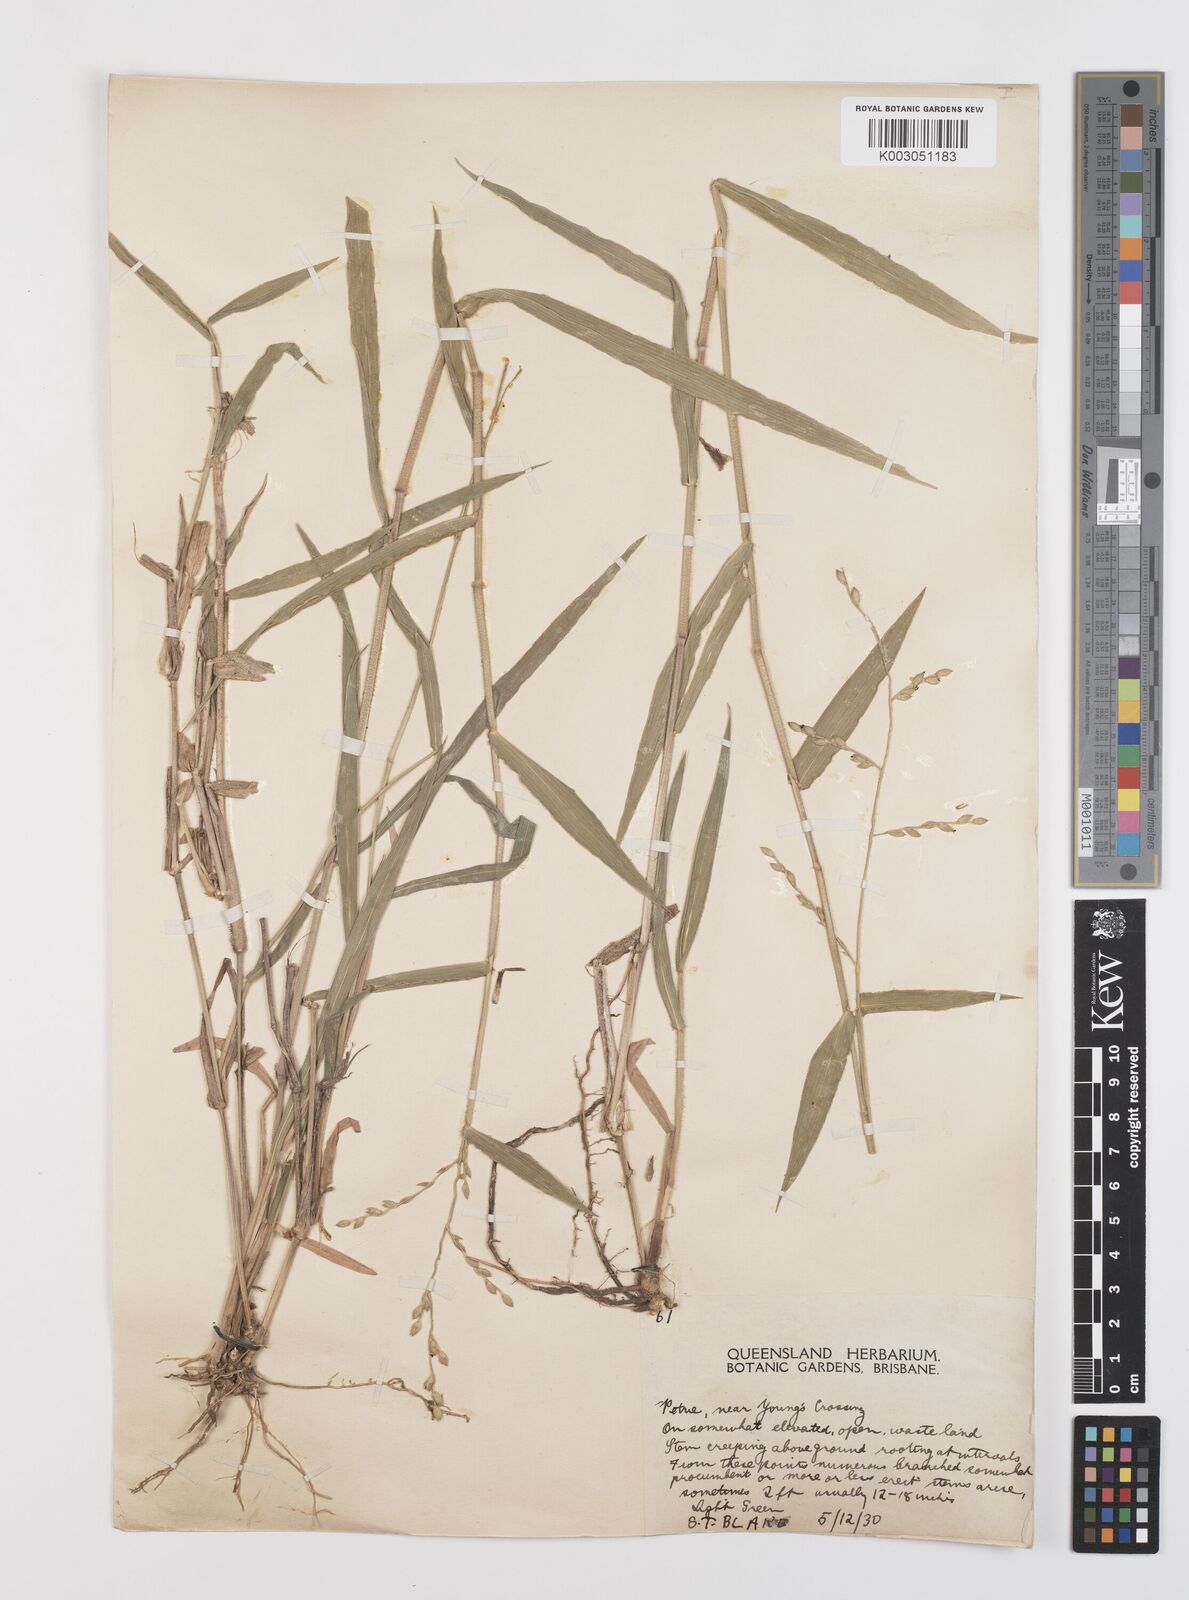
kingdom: Plantae
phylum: Tracheophyta
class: Liliopsida
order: Poales
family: Poaceae
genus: Urochloa
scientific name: Urochloa foliosa
